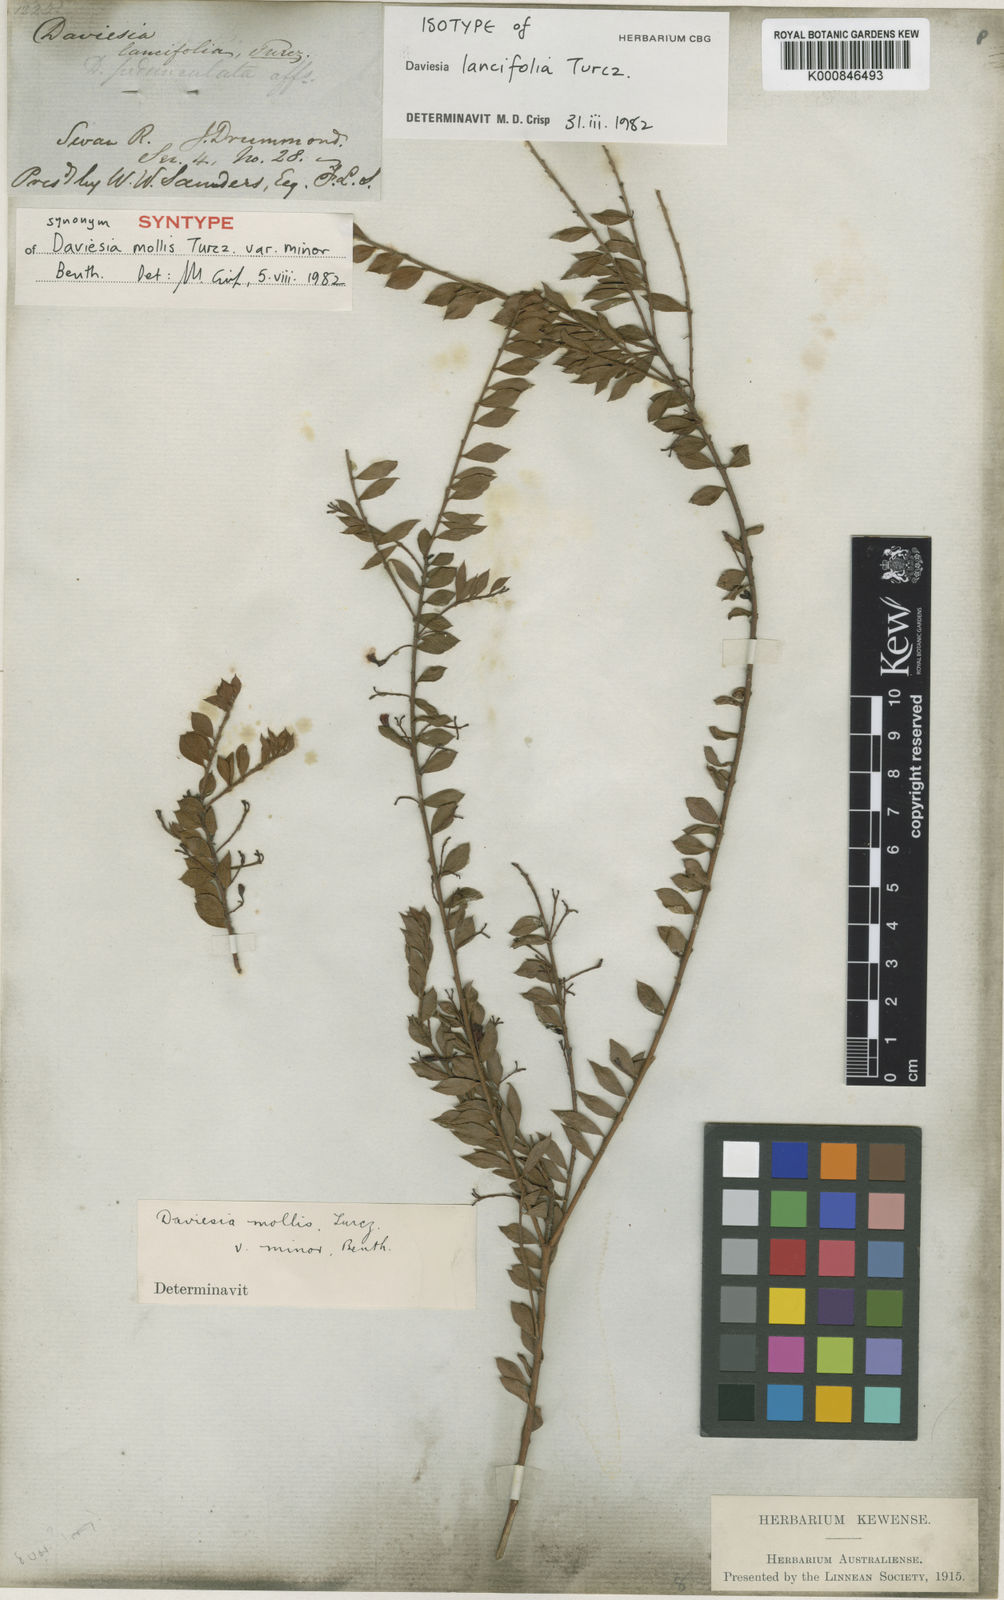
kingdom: Plantae
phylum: Tracheophyta
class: Magnoliopsida
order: Fabales
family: Fabaceae
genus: Daviesia
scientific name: Daviesia lancifolia
